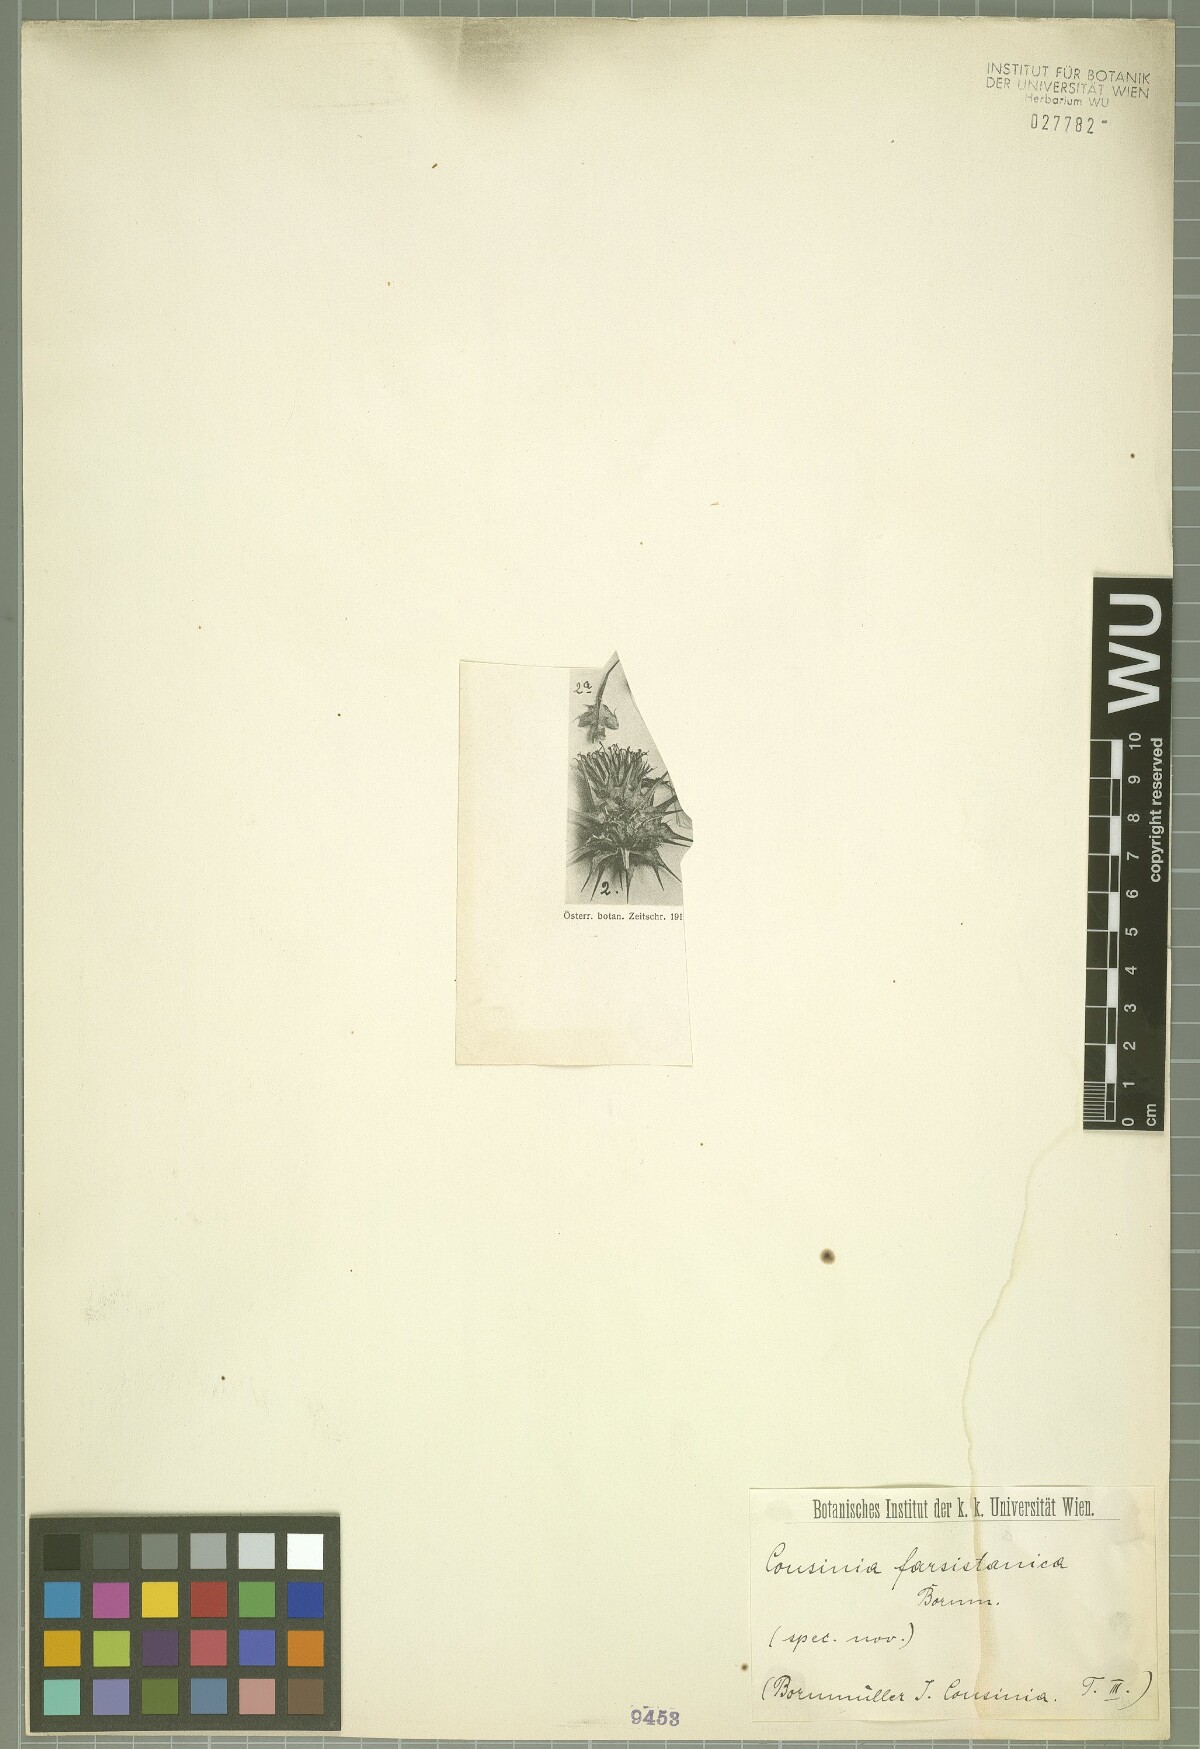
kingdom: Plantae
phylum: Tracheophyta
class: Magnoliopsida
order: Asterales
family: Asteraceae
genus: Cousinia
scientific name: Cousinia farsistanica
